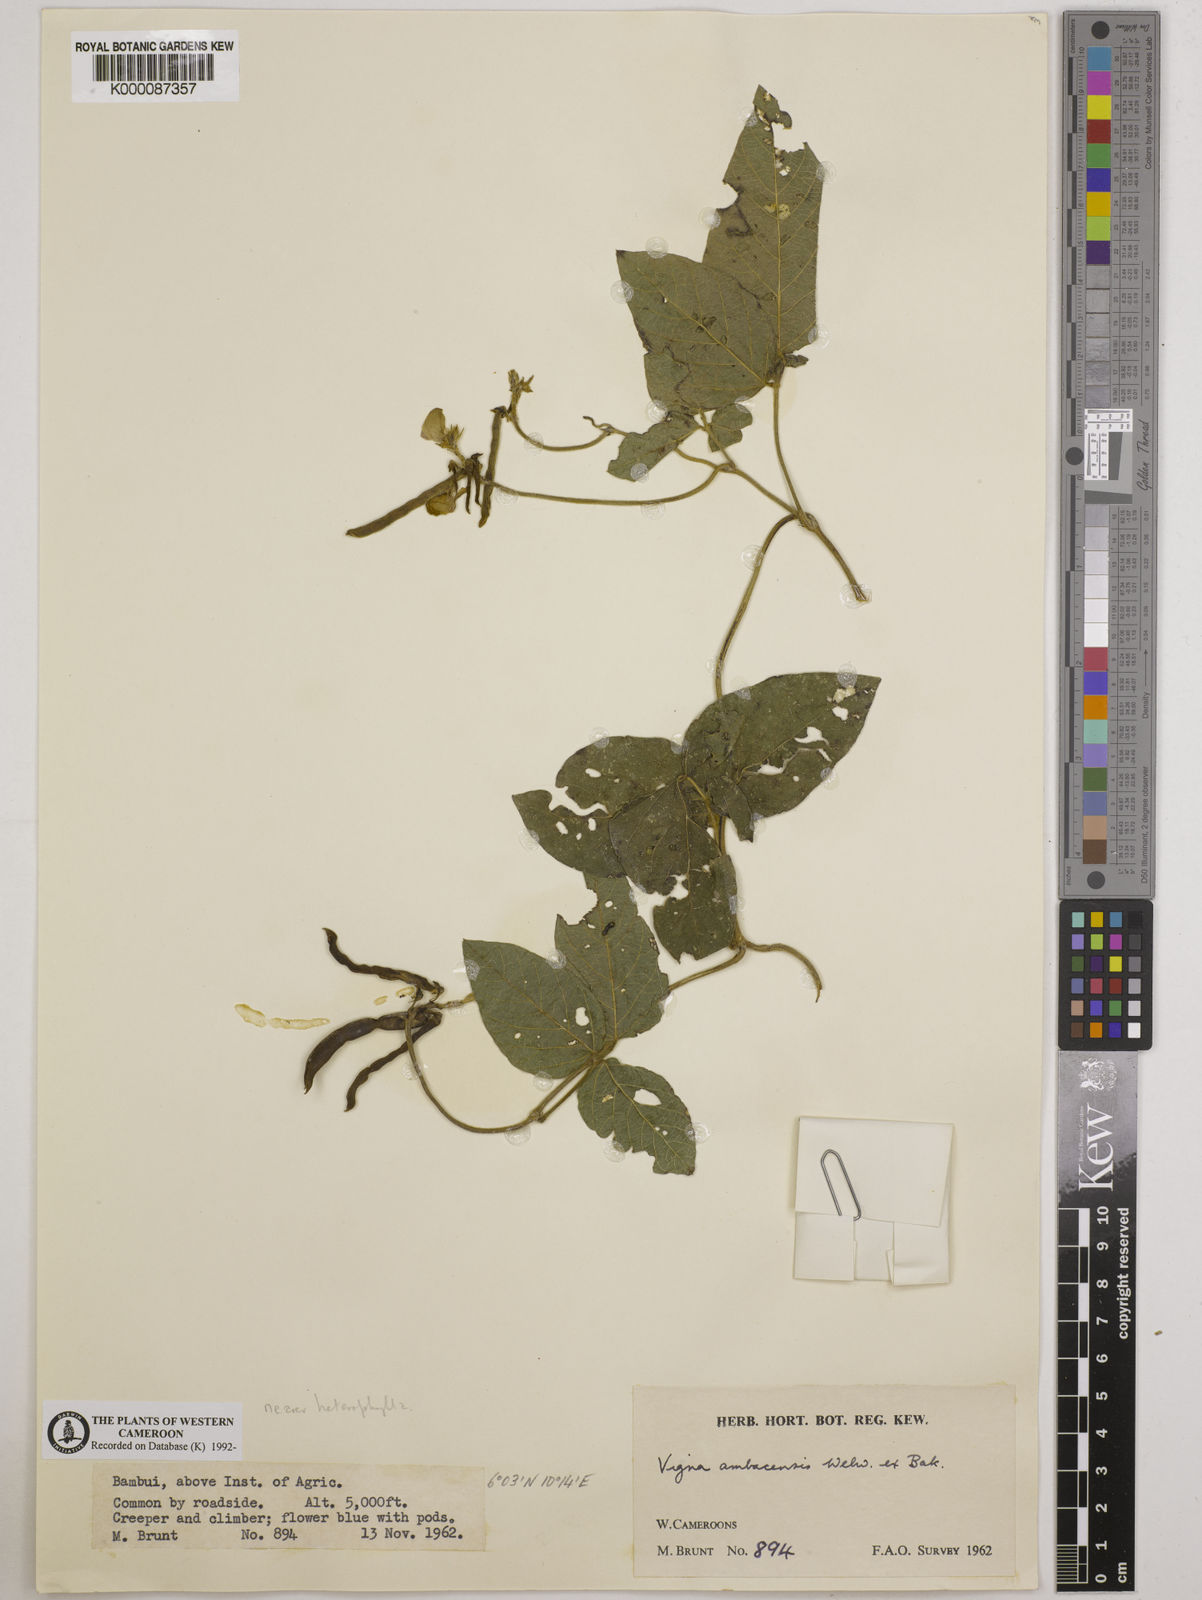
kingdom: Plantae
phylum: Tracheophyta
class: Magnoliopsida
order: Fabales
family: Fabaceae
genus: Vigna
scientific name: Vigna ambacensis
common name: Tsarkiyan zomo
